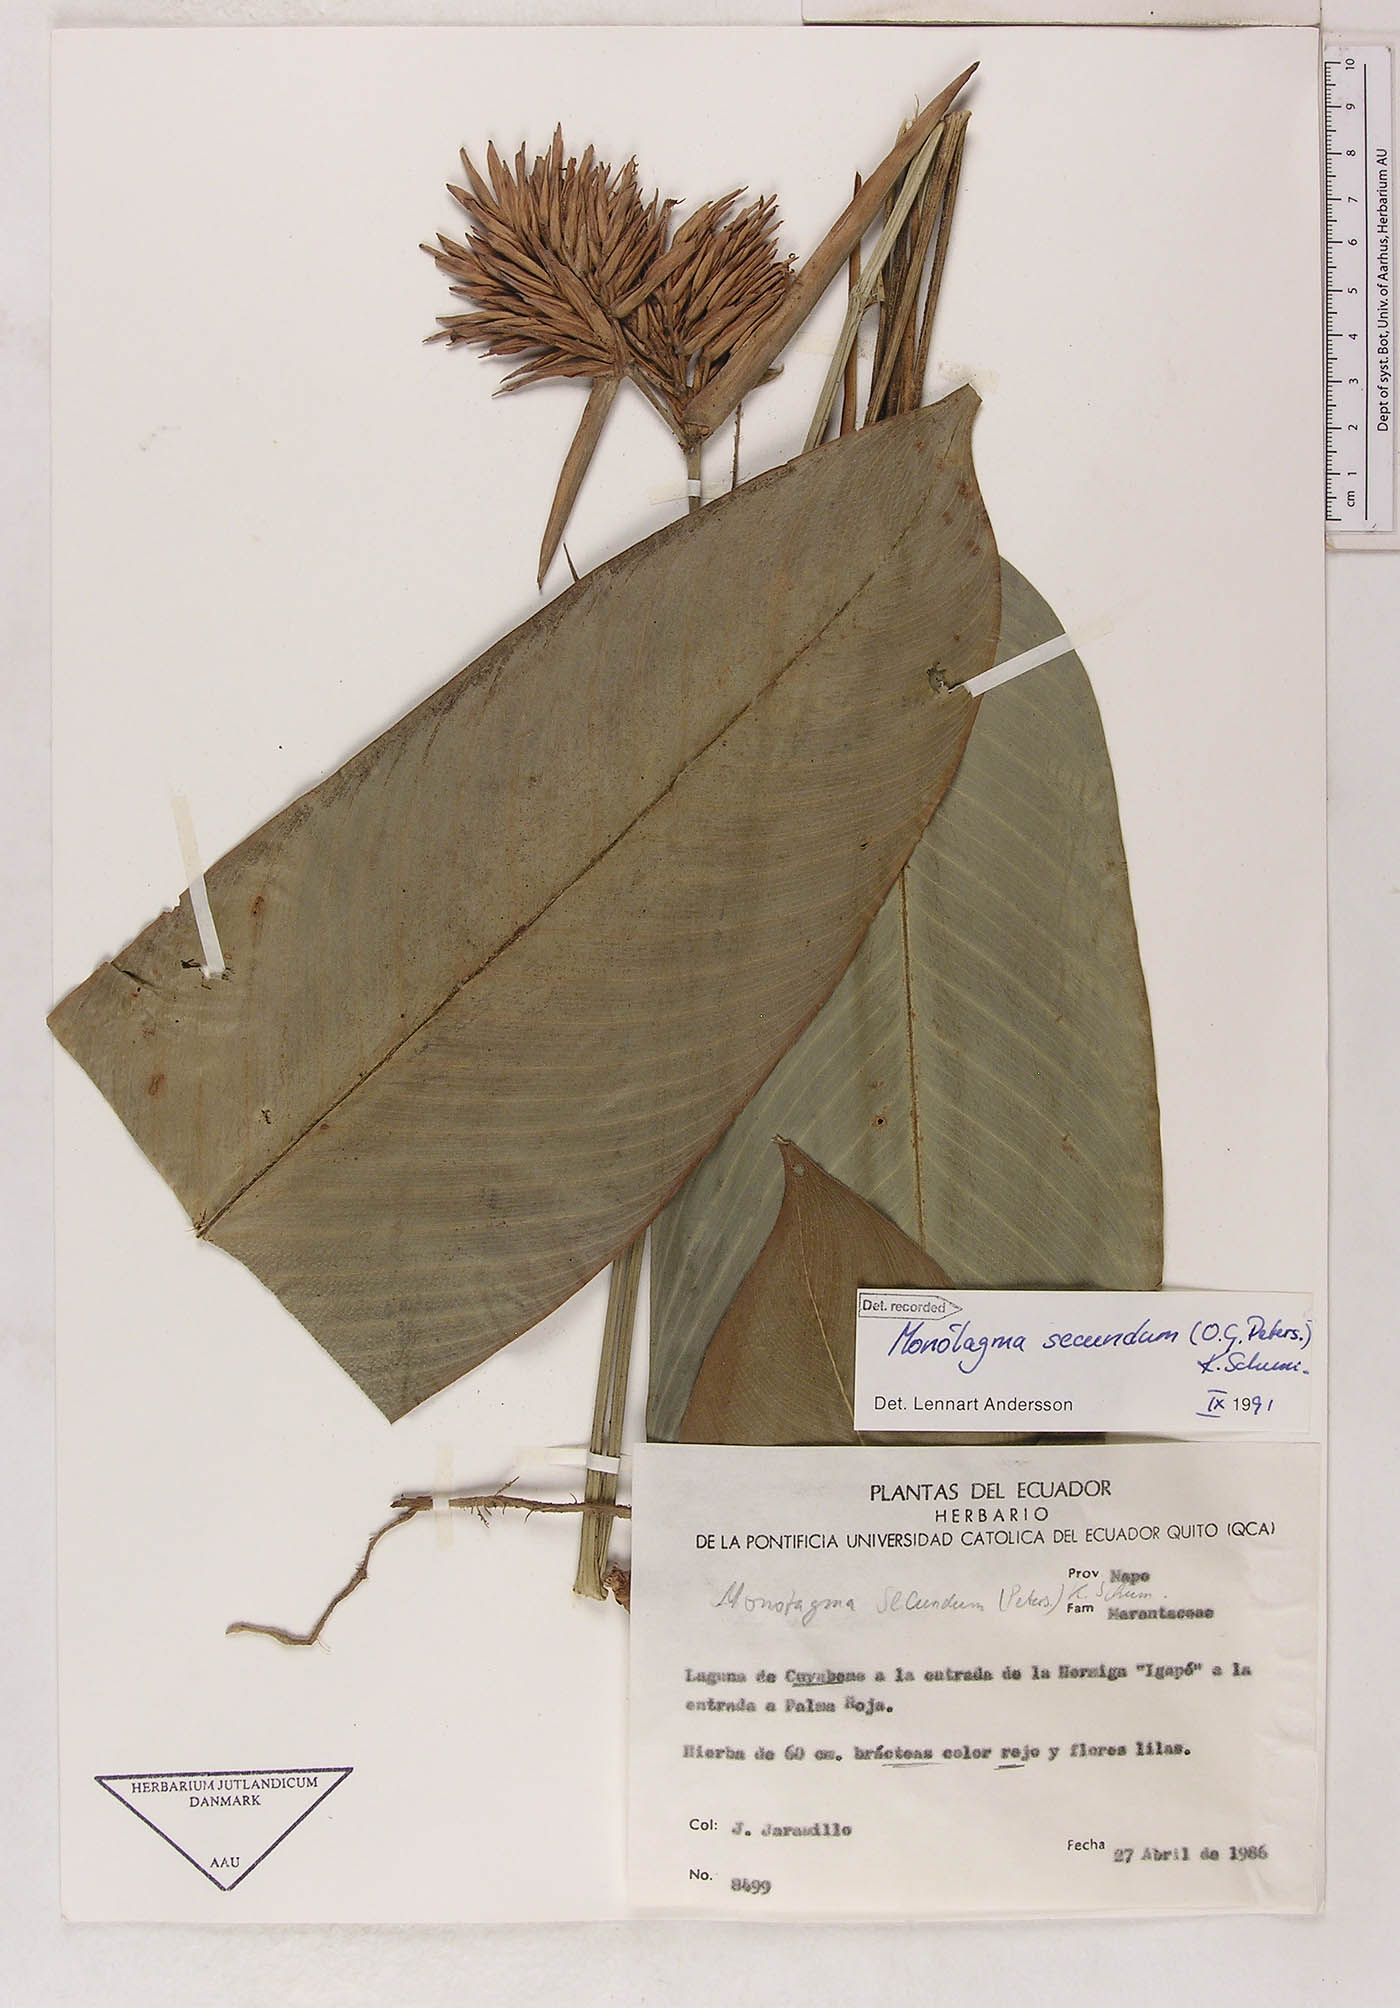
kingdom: Plantae
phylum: Tracheophyta
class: Liliopsida
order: Zingiberales
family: Marantaceae
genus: Monotagma
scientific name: Monotagma secundum
